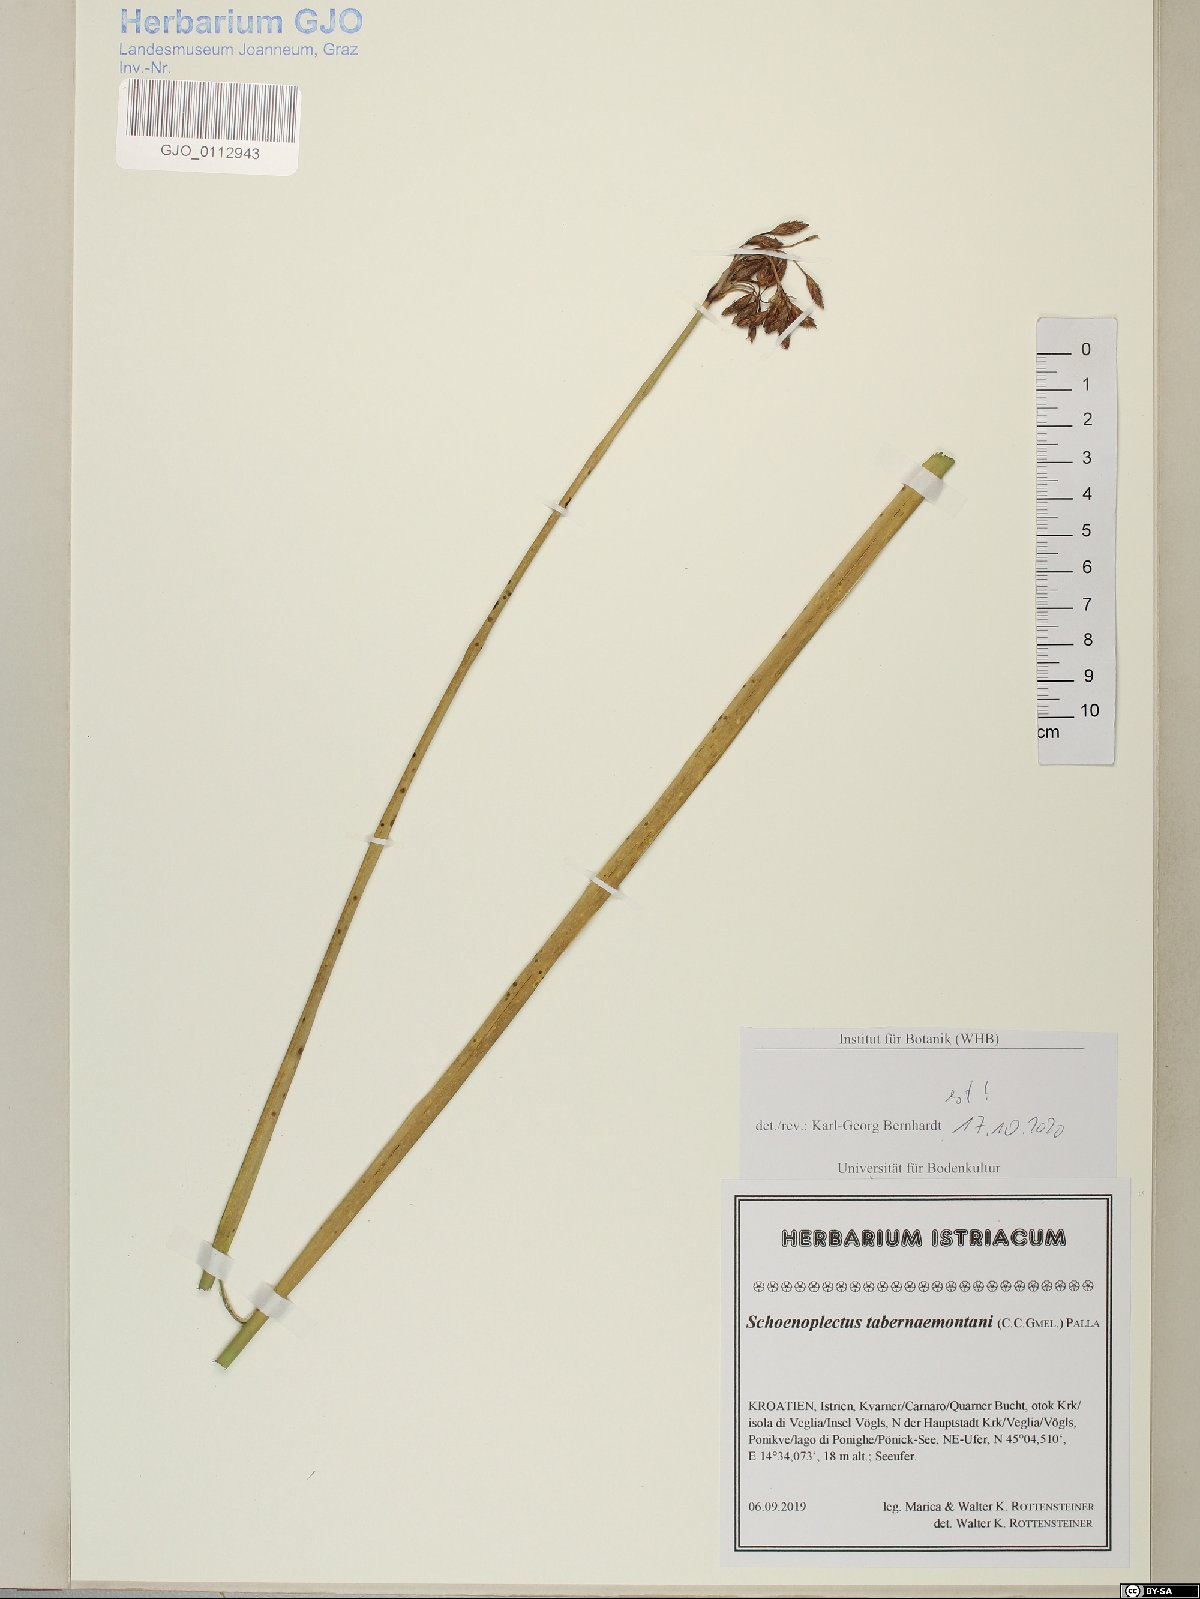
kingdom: Plantae
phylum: Tracheophyta
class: Liliopsida
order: Poales
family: Cyperaceae
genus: Schoenoplectus
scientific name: Schoenoplectus tabernaemontani
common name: Grey club-rush
